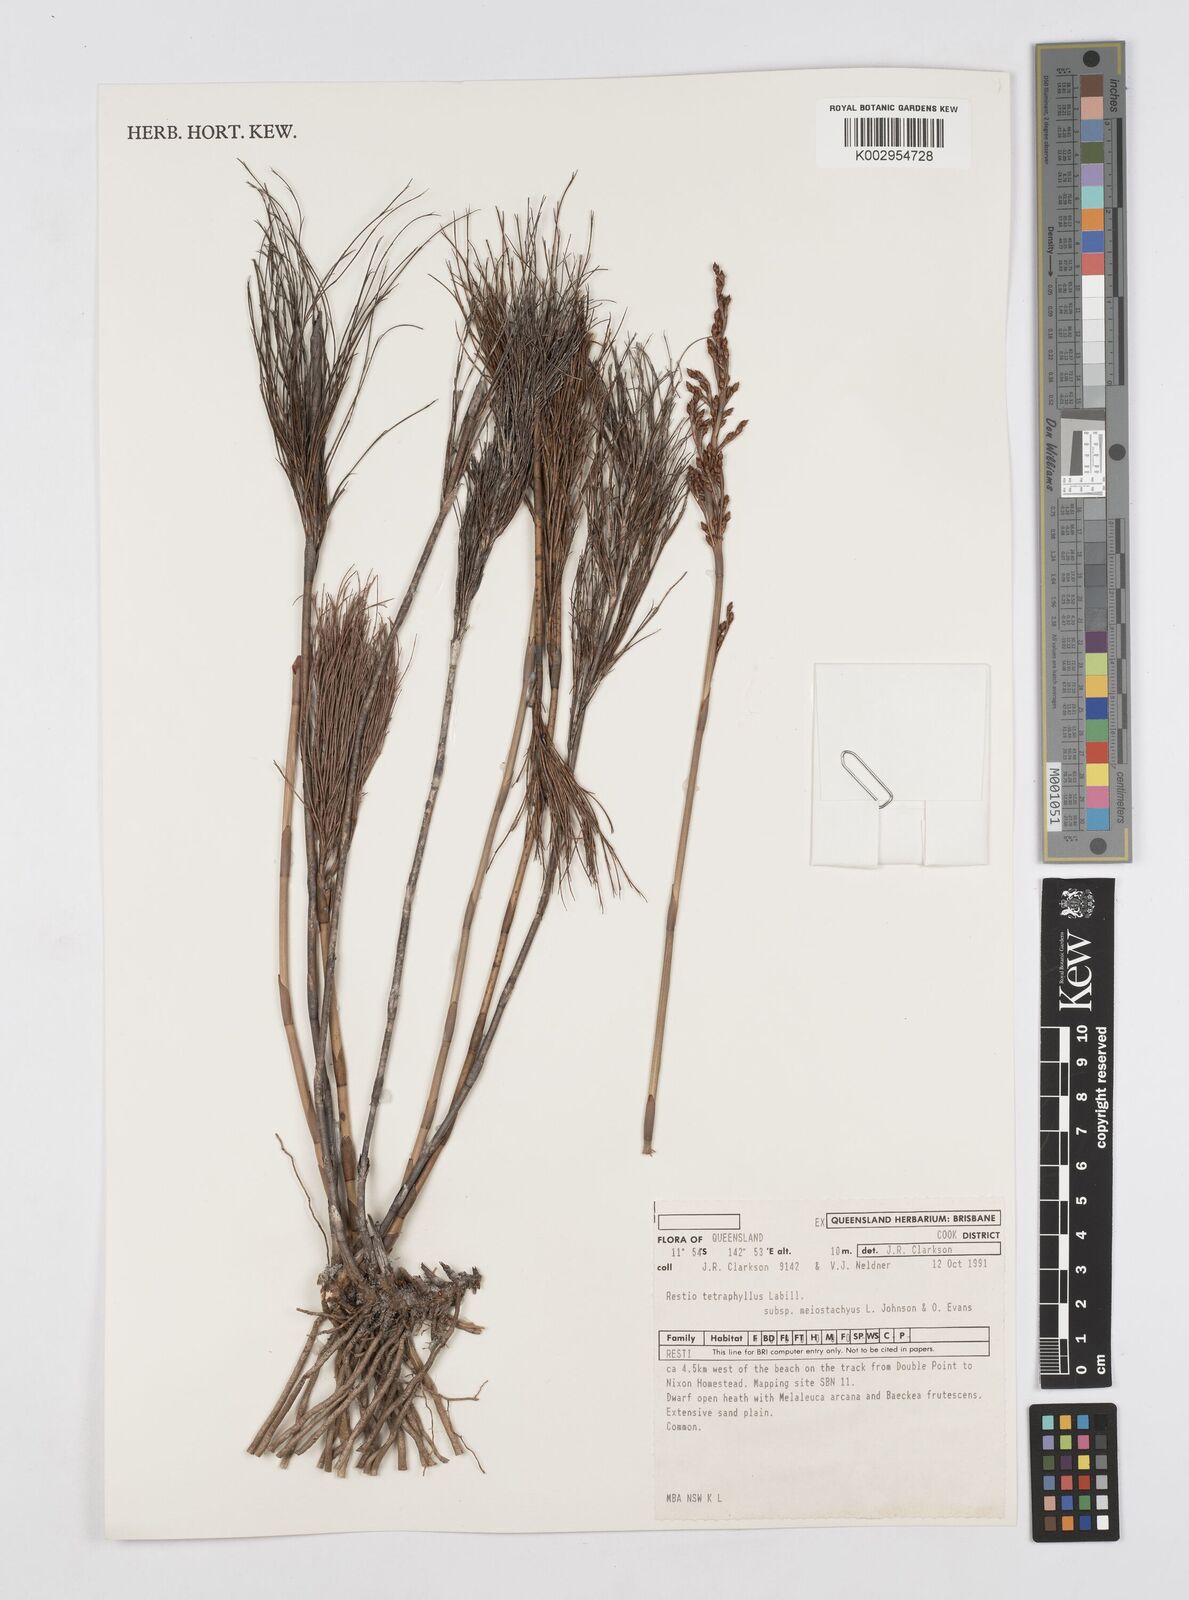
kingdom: Plantae
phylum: Tracheophyta
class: Liliopsida
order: Poales
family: Restionaceae
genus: Baloskion
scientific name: Baloskion tetraphyllum
